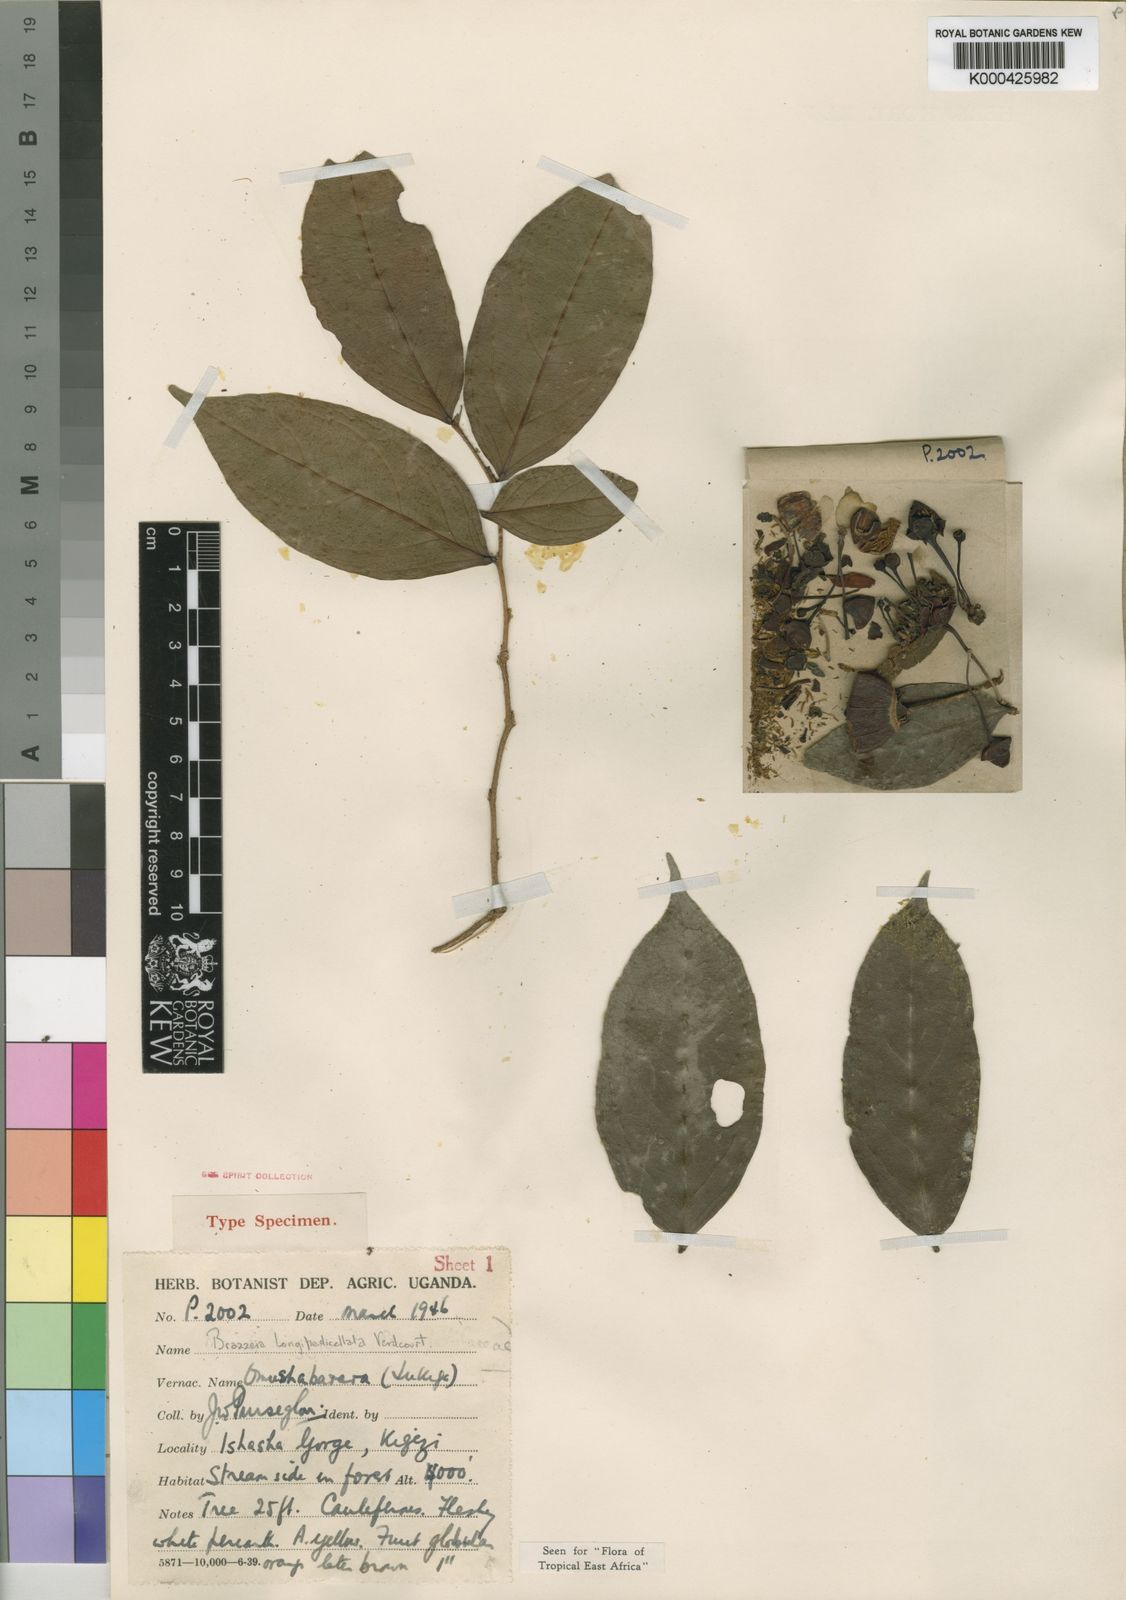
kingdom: Plantae
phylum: Tracheophyta
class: Magnoliopsida
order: Ericales
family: Lecythidaceae
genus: Brazzeia
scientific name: Brazzeia longipedicellata
